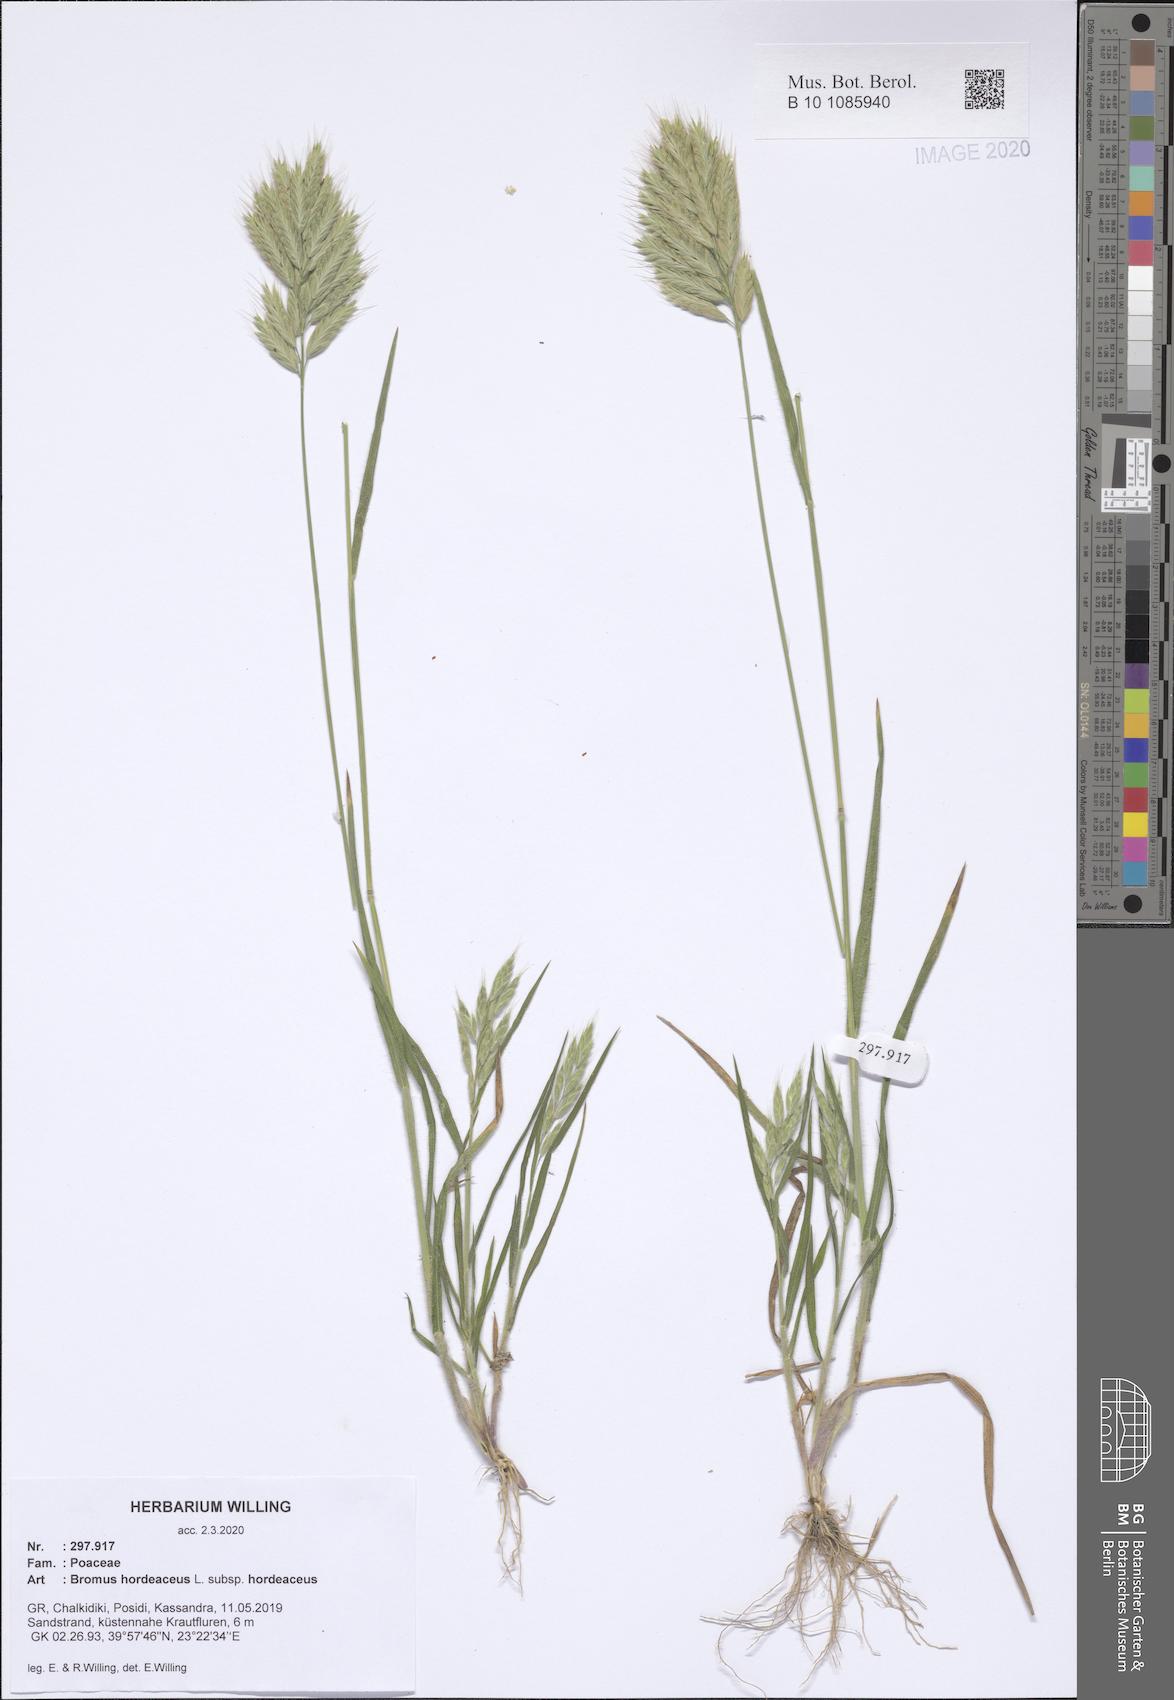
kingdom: Plantae
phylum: Tracheophyta
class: Liliopsida
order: Poales
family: Poaceae
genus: Bromus
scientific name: Bromus hordeaceus
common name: Soft brome
